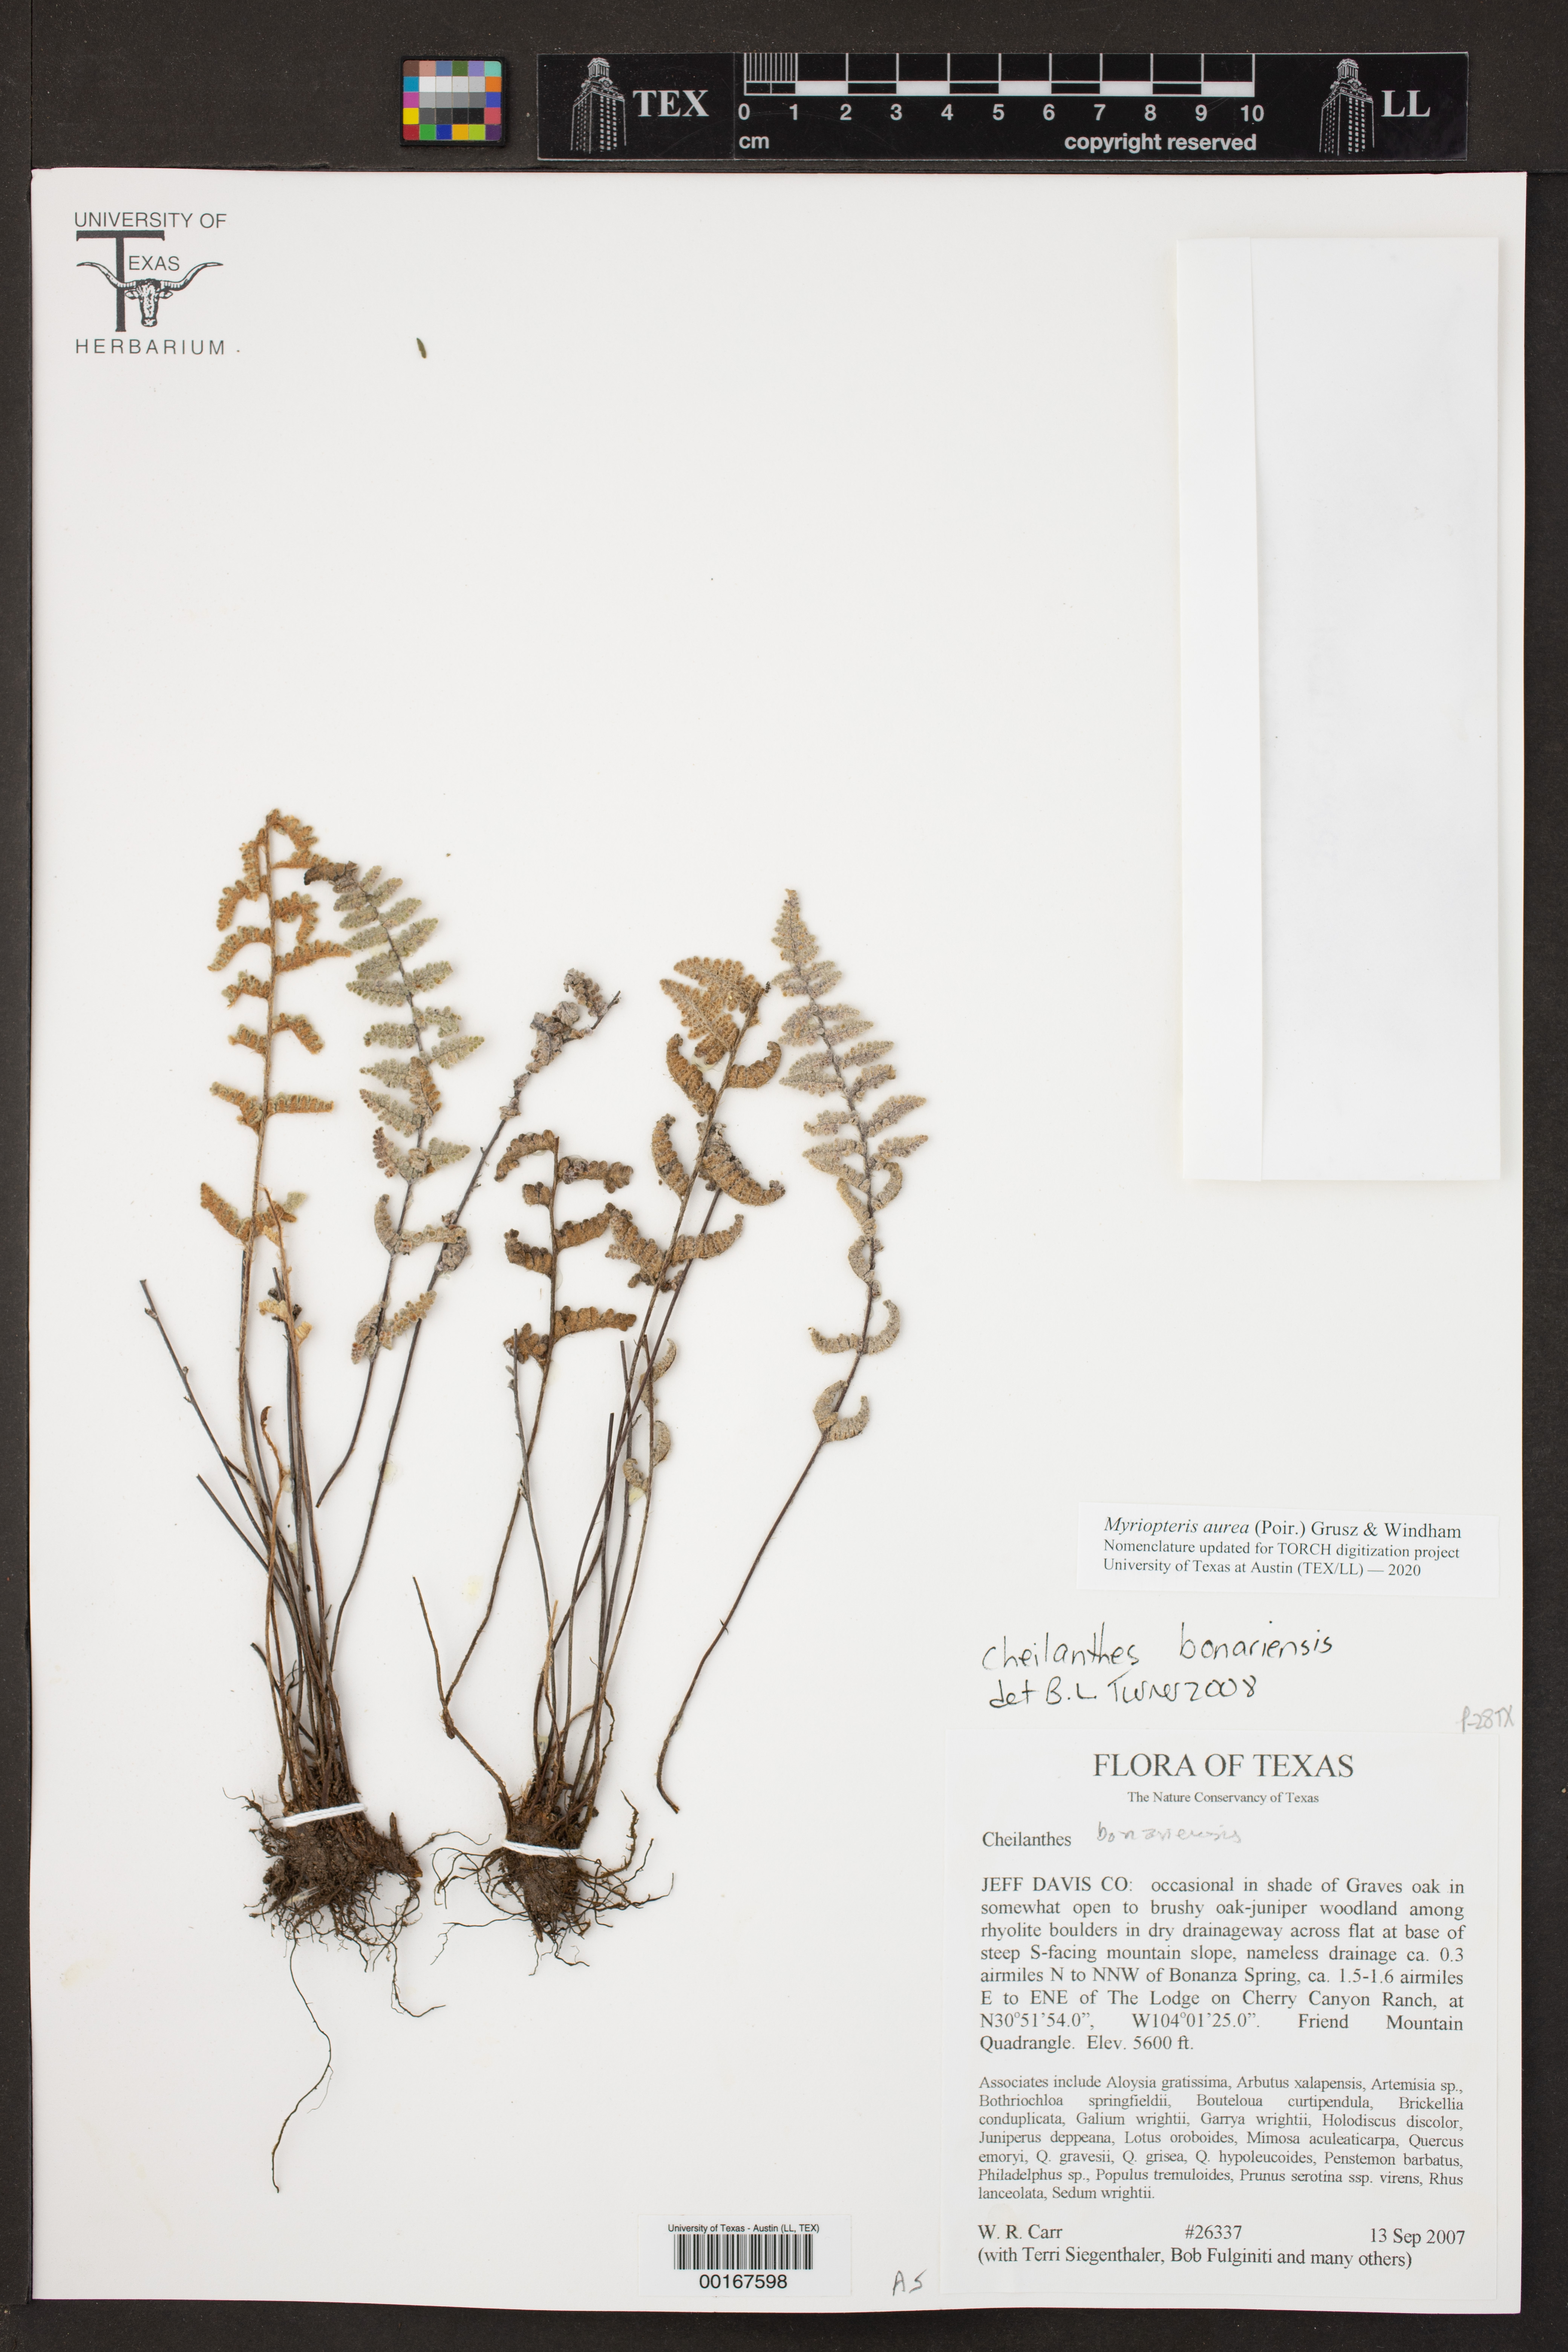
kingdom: Plantae
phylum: Tracheophyta
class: Polypodiopsida
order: Polypodiales
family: Pteridaceae
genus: Myriopteris
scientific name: Myriopteris aurea
